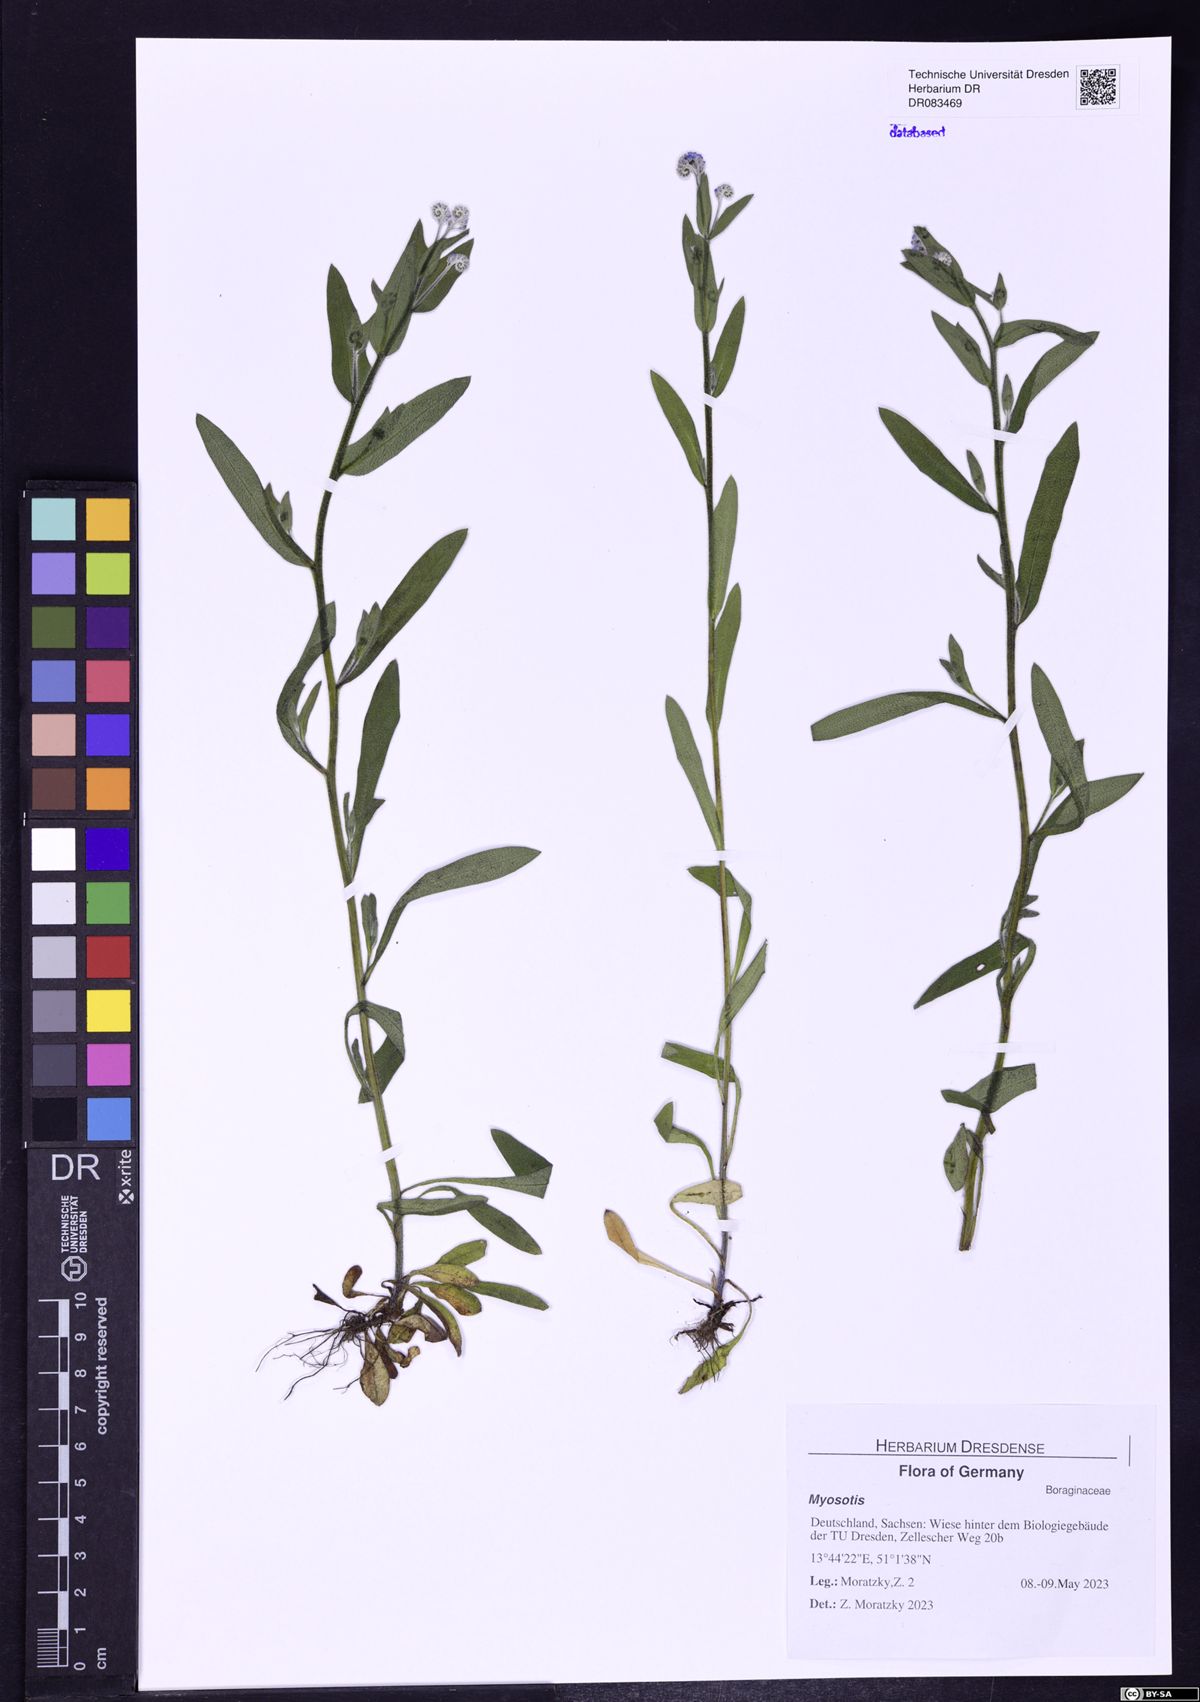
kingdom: Plantae
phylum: Tracheophyta
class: Magnoliopsida
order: Boraginales
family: Boraginaceae
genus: Myosotis
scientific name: Myosotis
